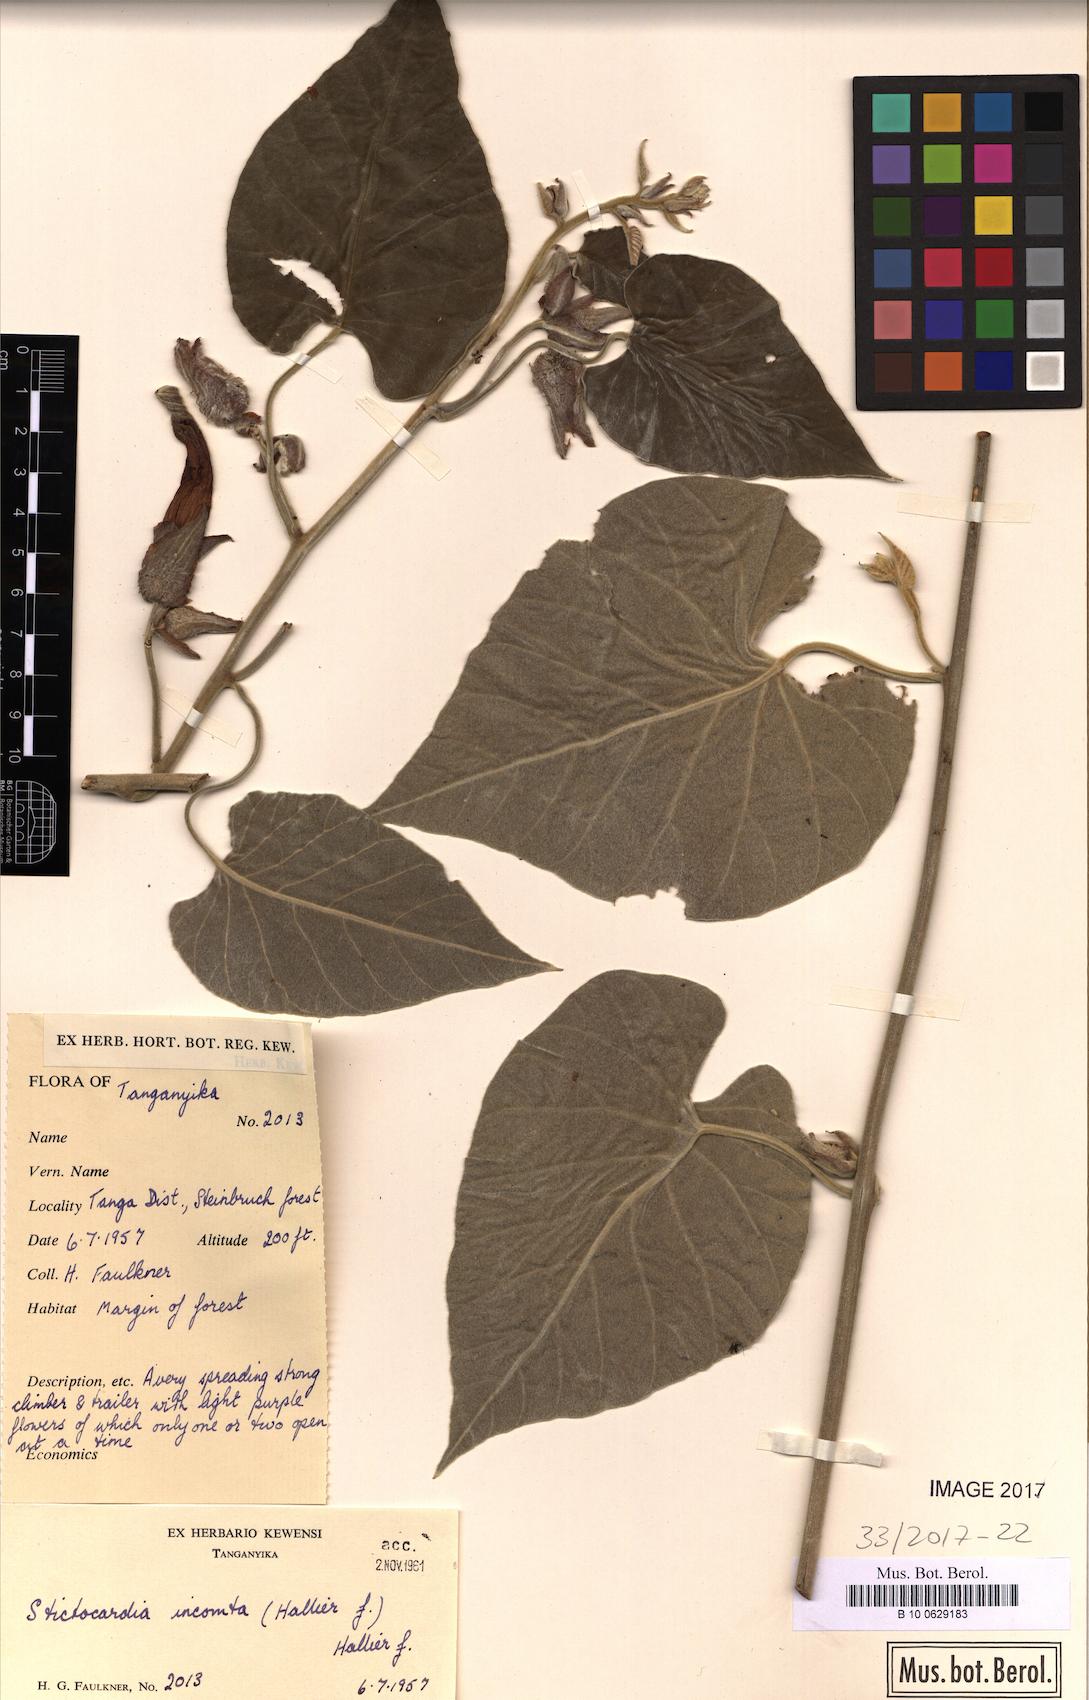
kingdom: Plantae
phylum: Tracheophyta
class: Magnoliopsida
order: Solanales
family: Convolvulaceae
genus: Stictocardia
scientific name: Stictocardia incomta
